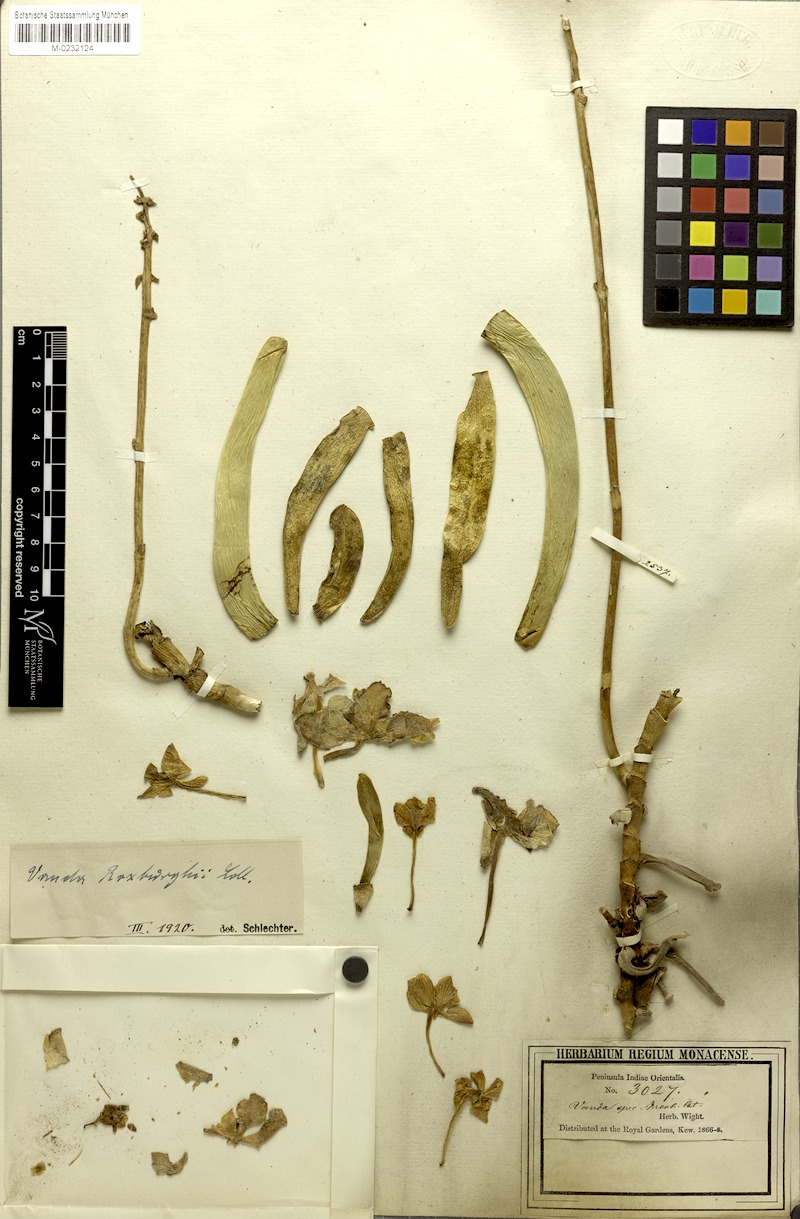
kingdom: Plantae
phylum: Tracheophyta
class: Liliopsida
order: Asparagales
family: Orchidaceae
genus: Vanda
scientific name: Vanda tessellata
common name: Grey orchid
